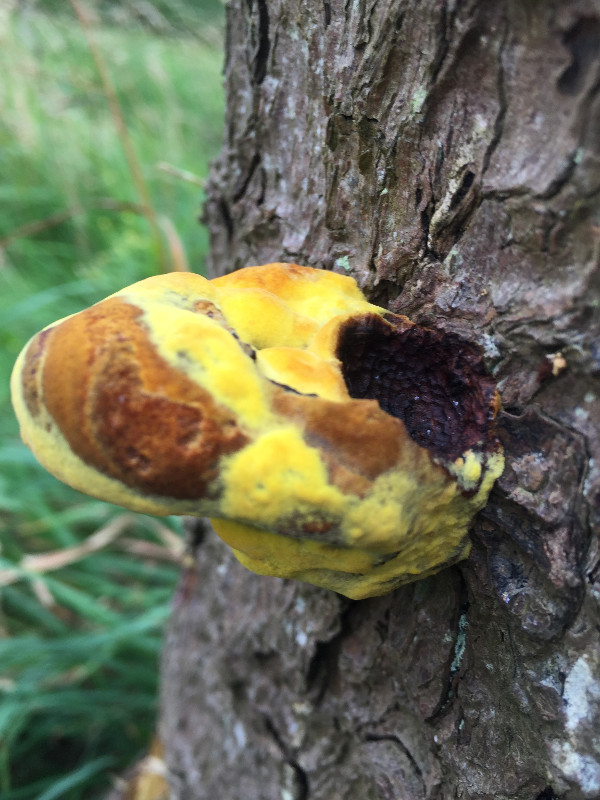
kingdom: Fungi
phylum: Basidiomycota
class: Agaricomycetes
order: Polyporales
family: Laetiporaceae
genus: Phaeolus
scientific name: Phaeolus schweinitzii
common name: brunporesvamp
